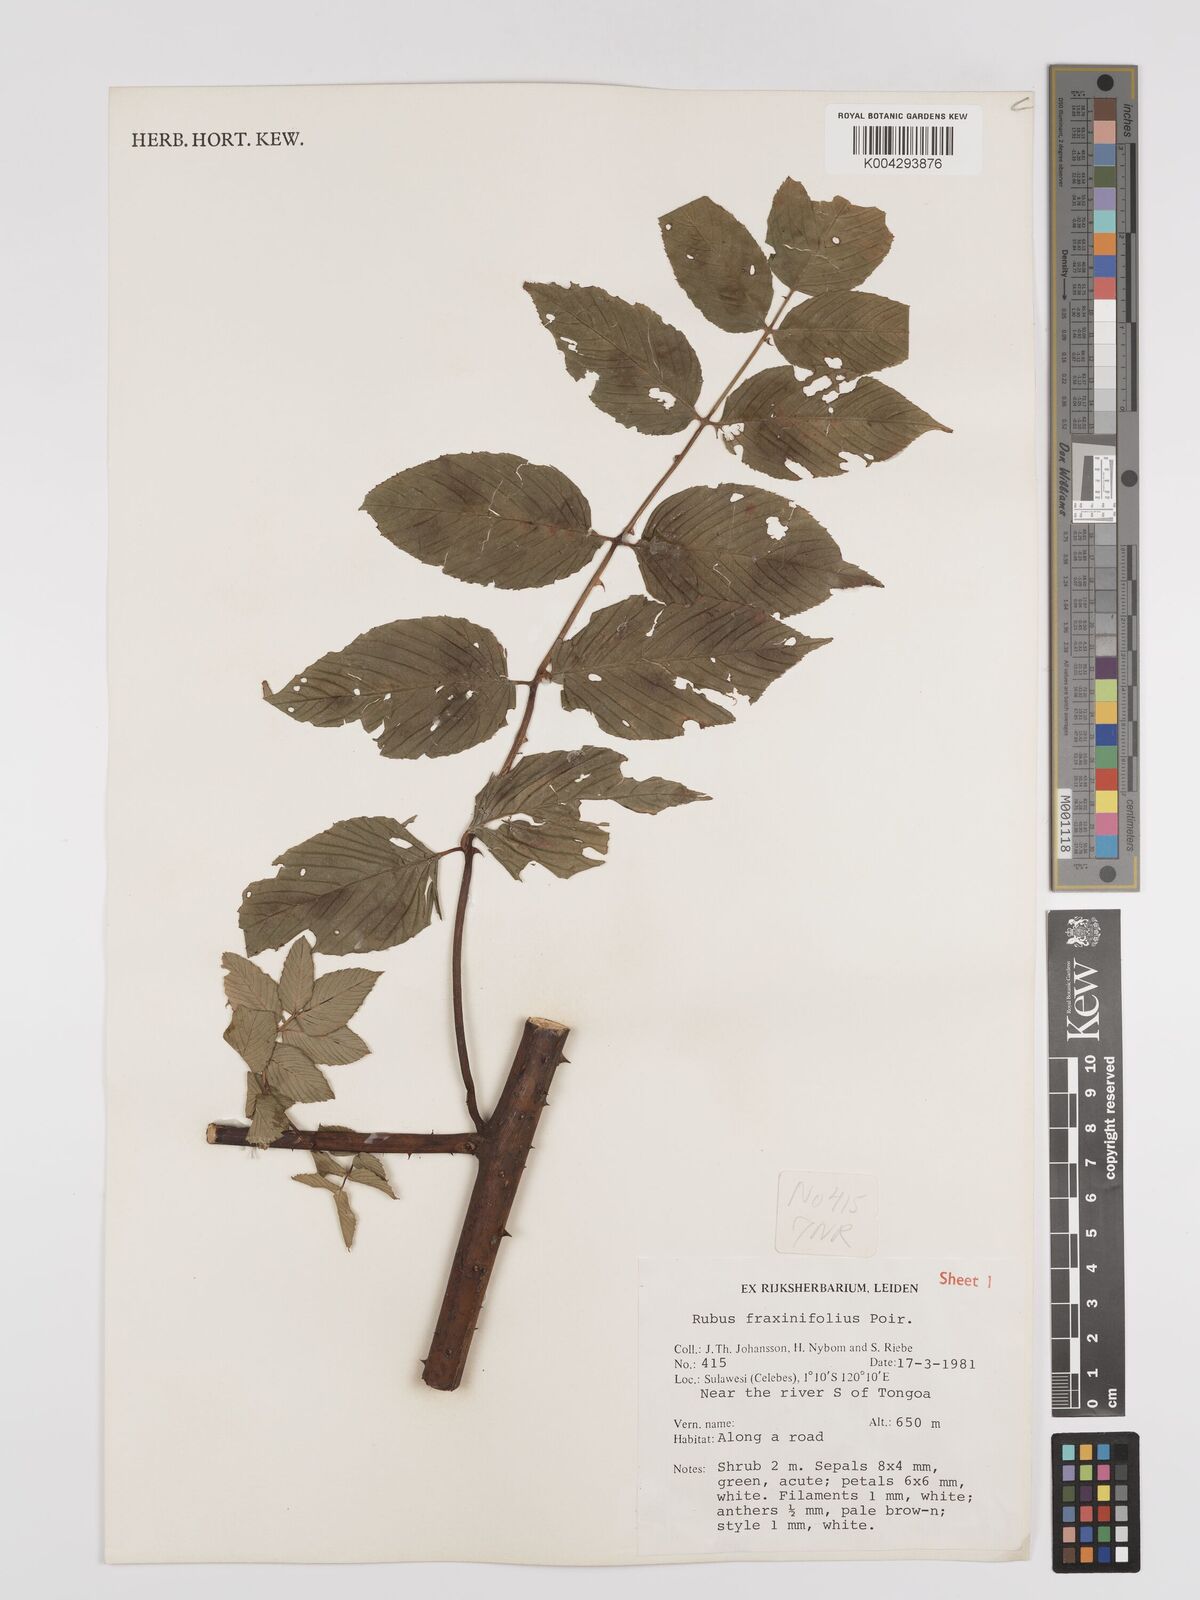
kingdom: Plantae
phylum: Tracheophyta
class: Magnoliopsida
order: Rosales
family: Rosaceae
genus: Rubus
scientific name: Rubus fraxinifolius
